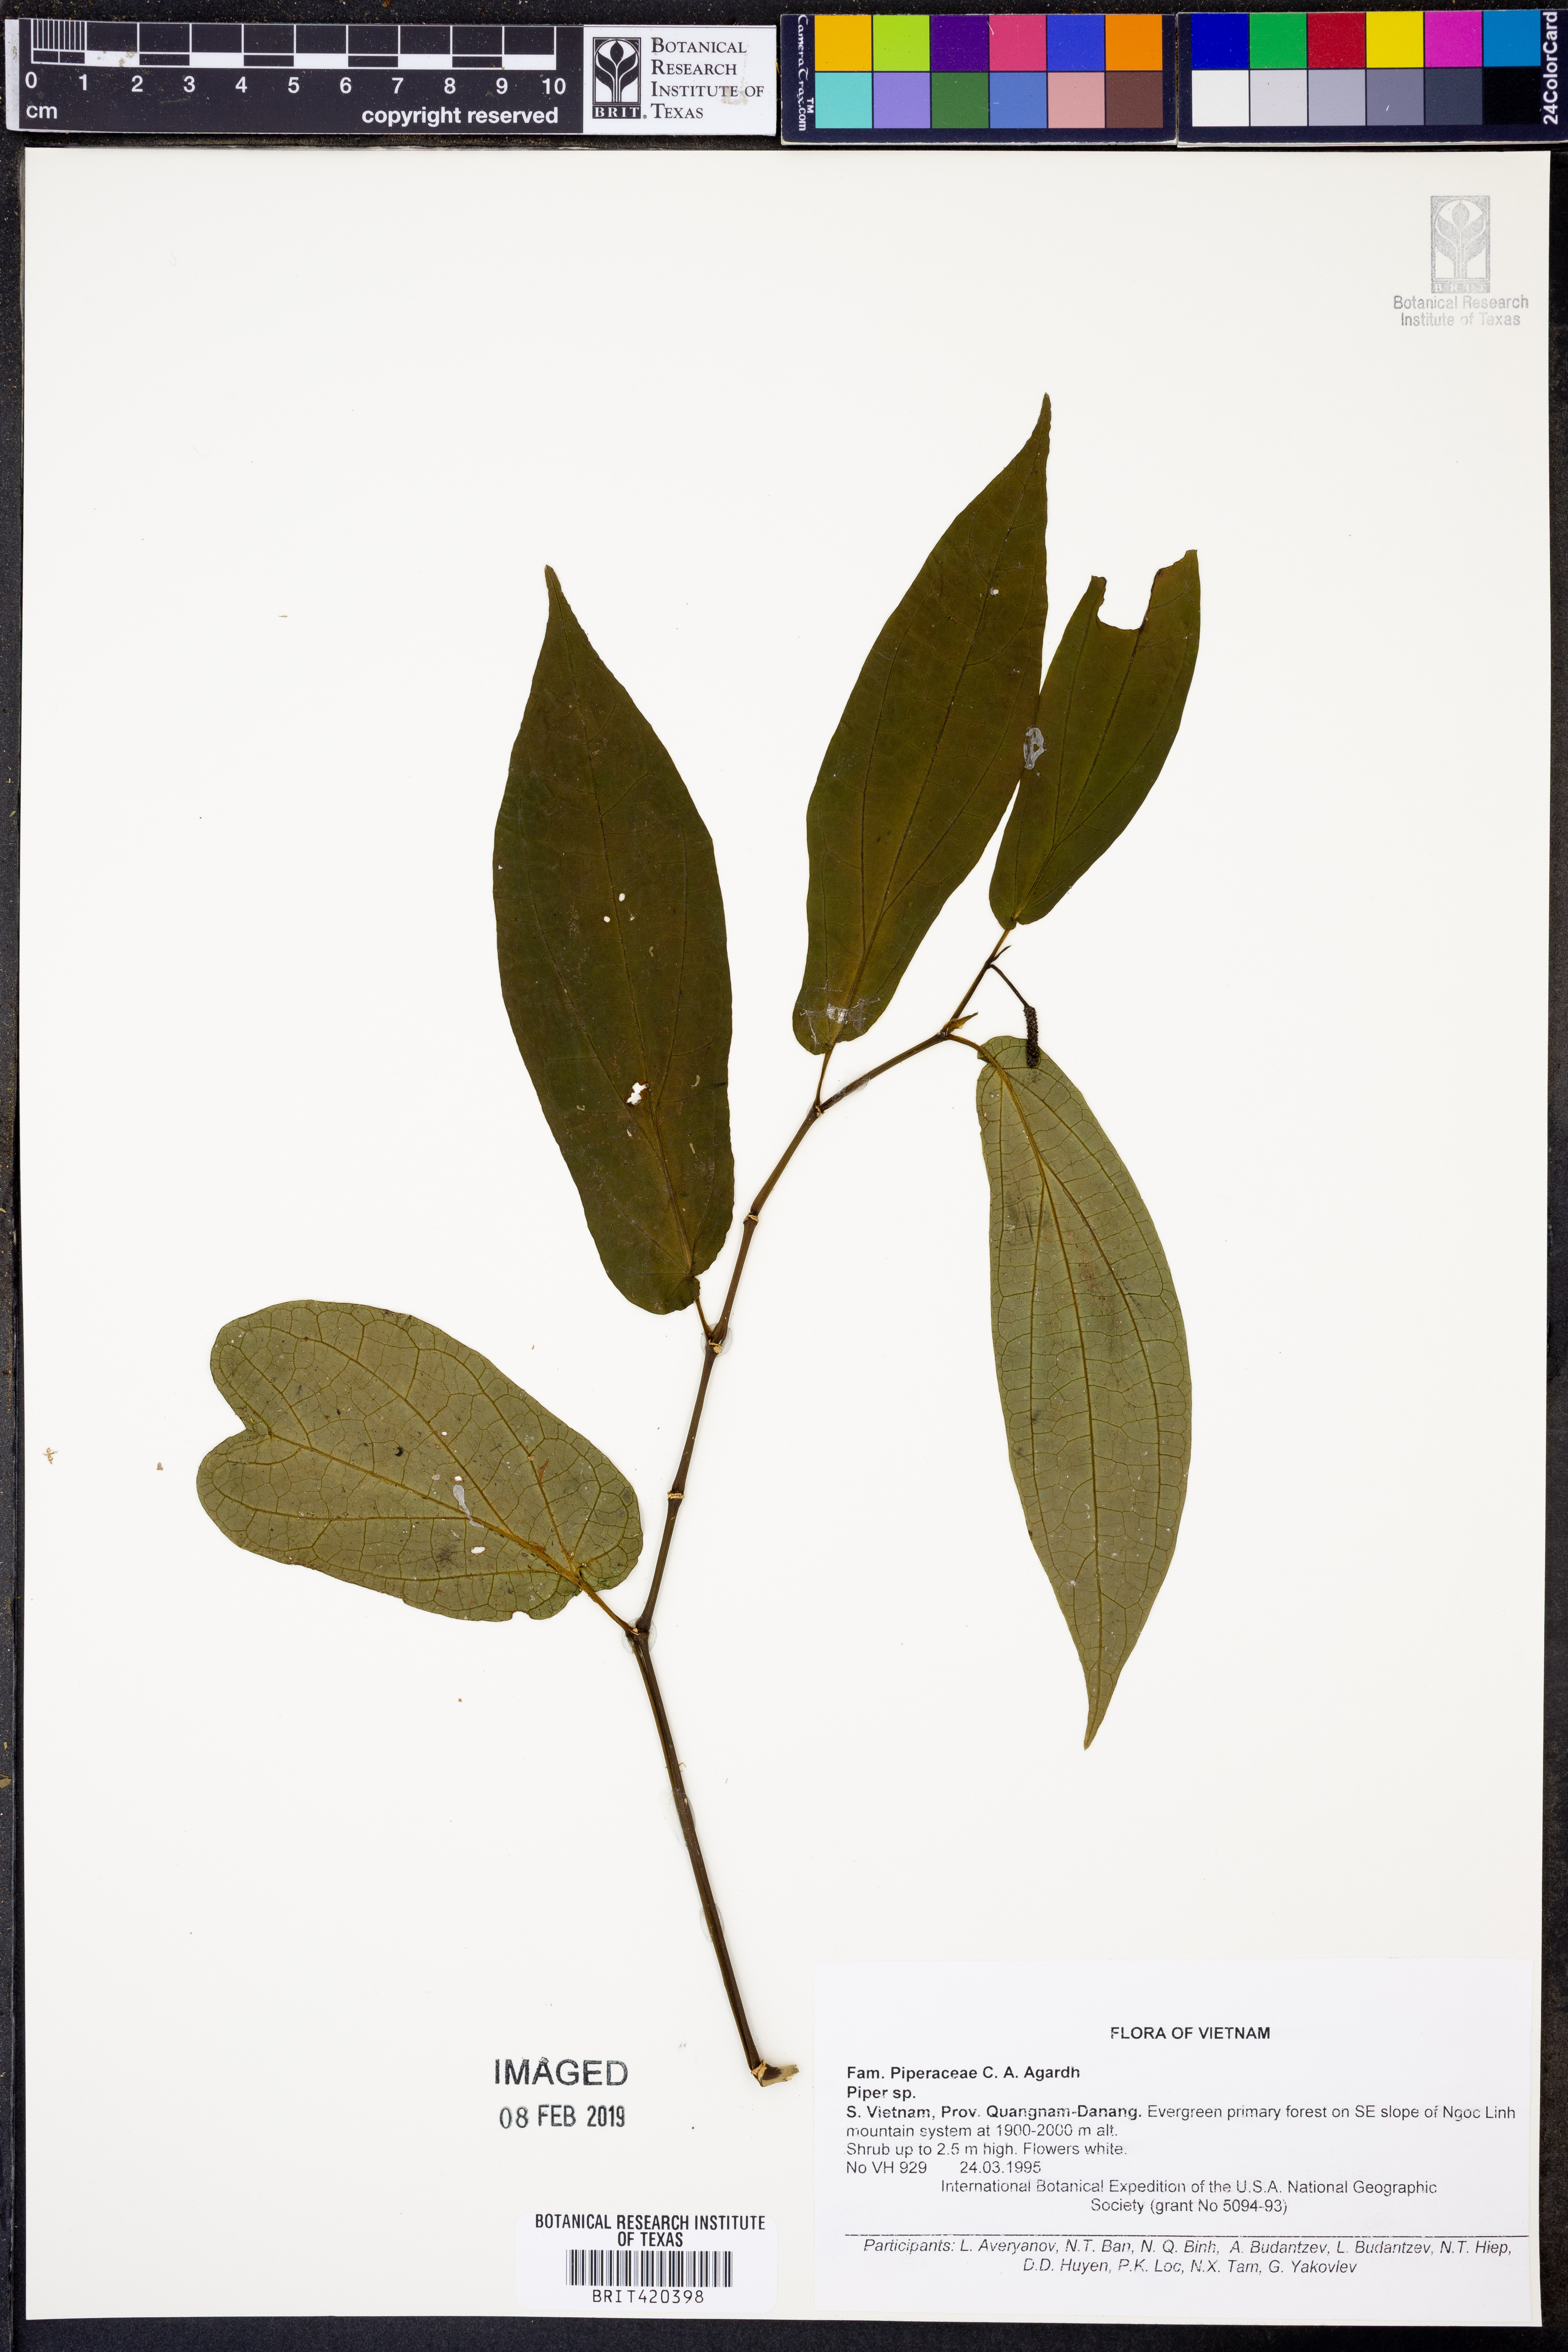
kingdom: Plantae
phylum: Tracheophyta
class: Magnoliopsida
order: Piperales
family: Piperaceae
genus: Piper
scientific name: Piper
